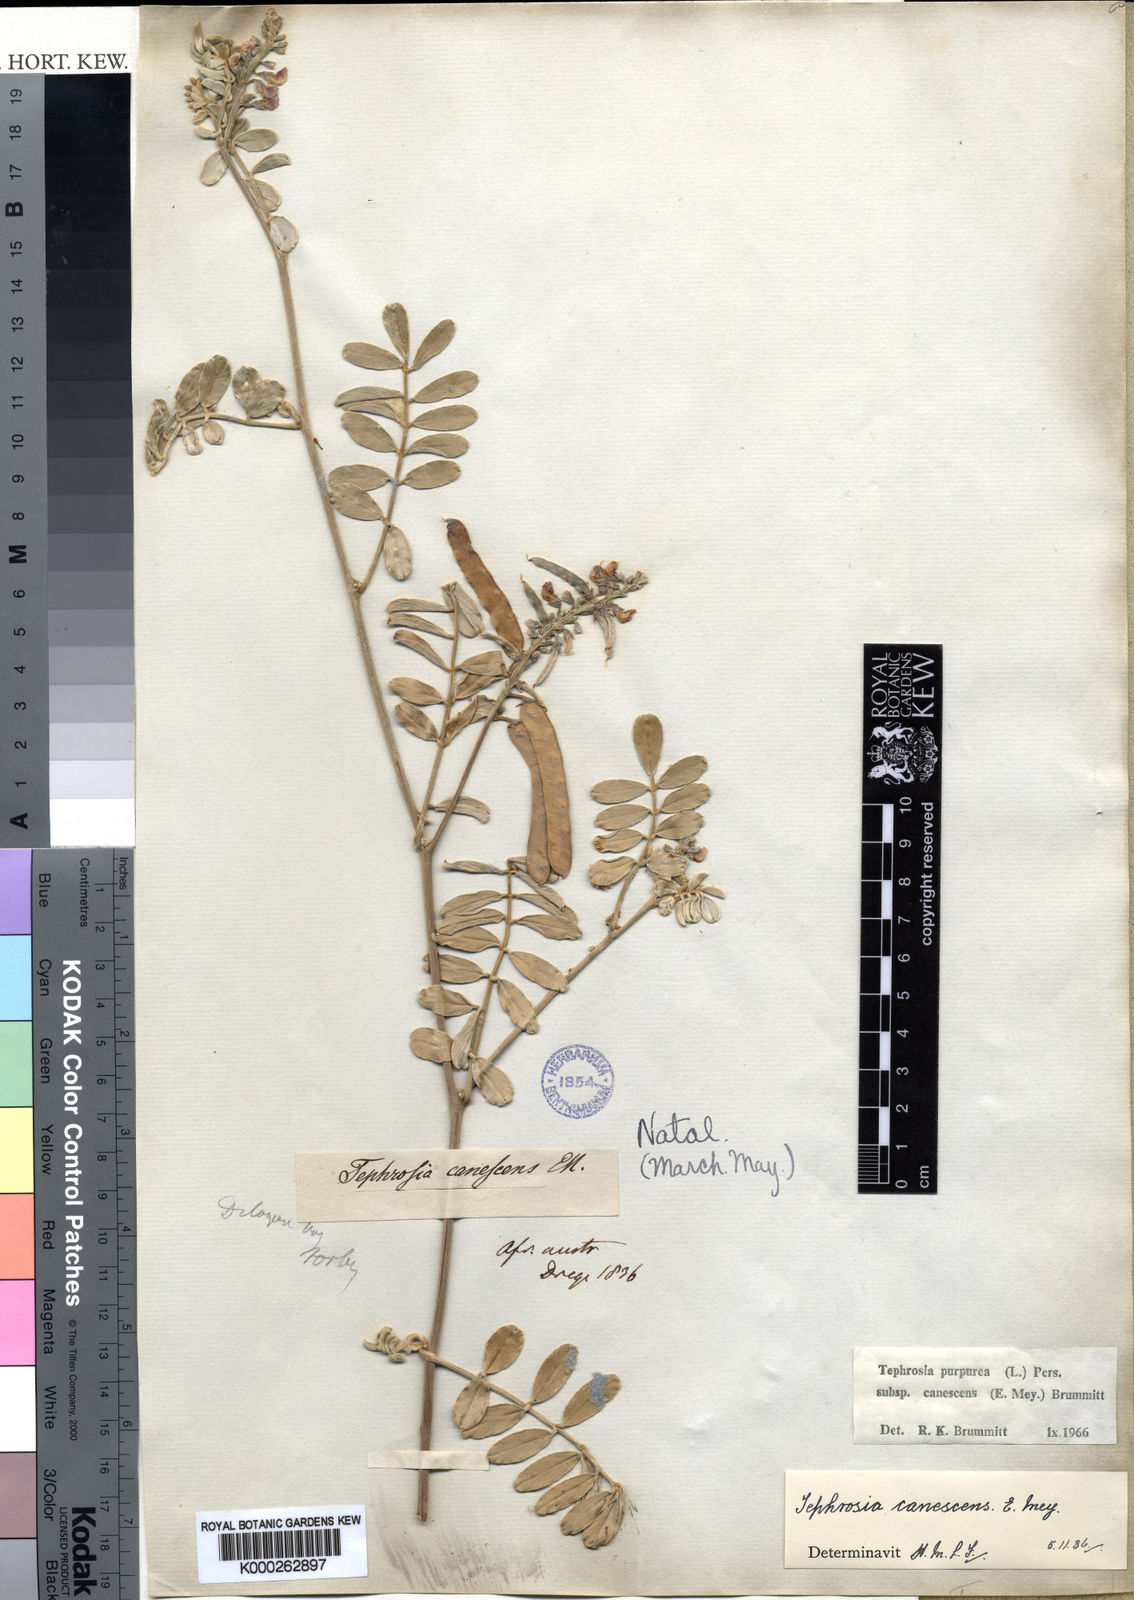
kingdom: Plantae
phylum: Tracheophyta
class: Magnoliopsida
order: Fabales
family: Fabaceae
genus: Tephrosia
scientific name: Tephrosia purpurea
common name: Fishpoison
